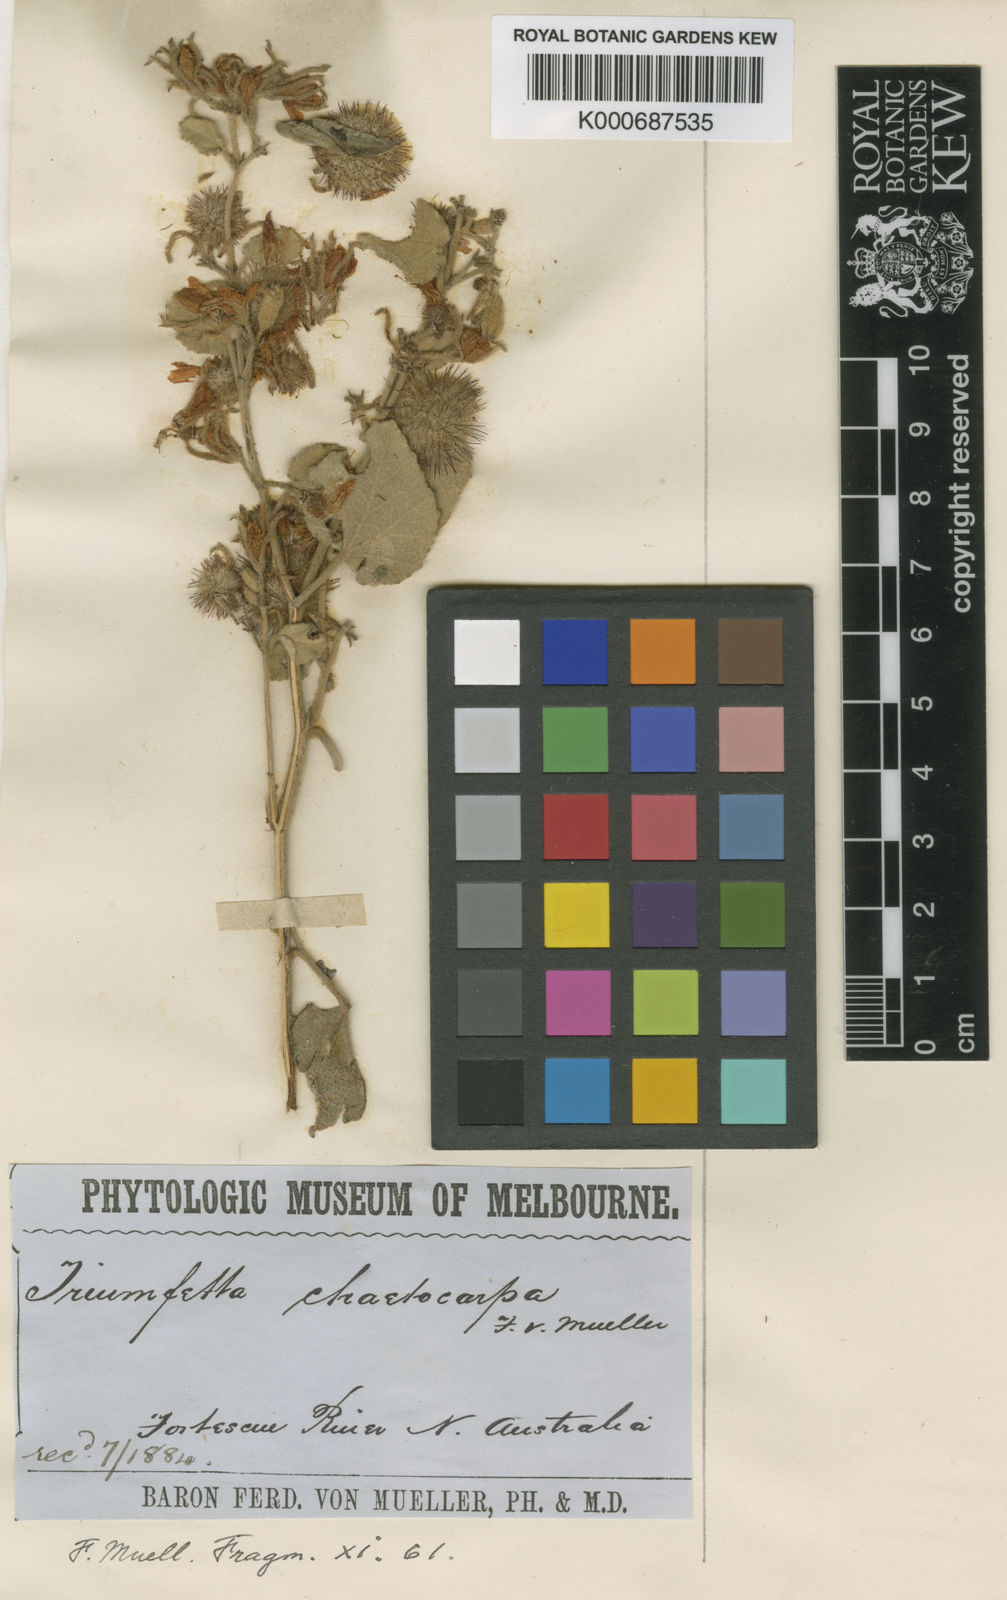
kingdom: Plantae
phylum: Tracheophyta
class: Magnoliopsida
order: Malvales
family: Malvaceae
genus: Triumfetta
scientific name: Triumfetta chaetocarpa
